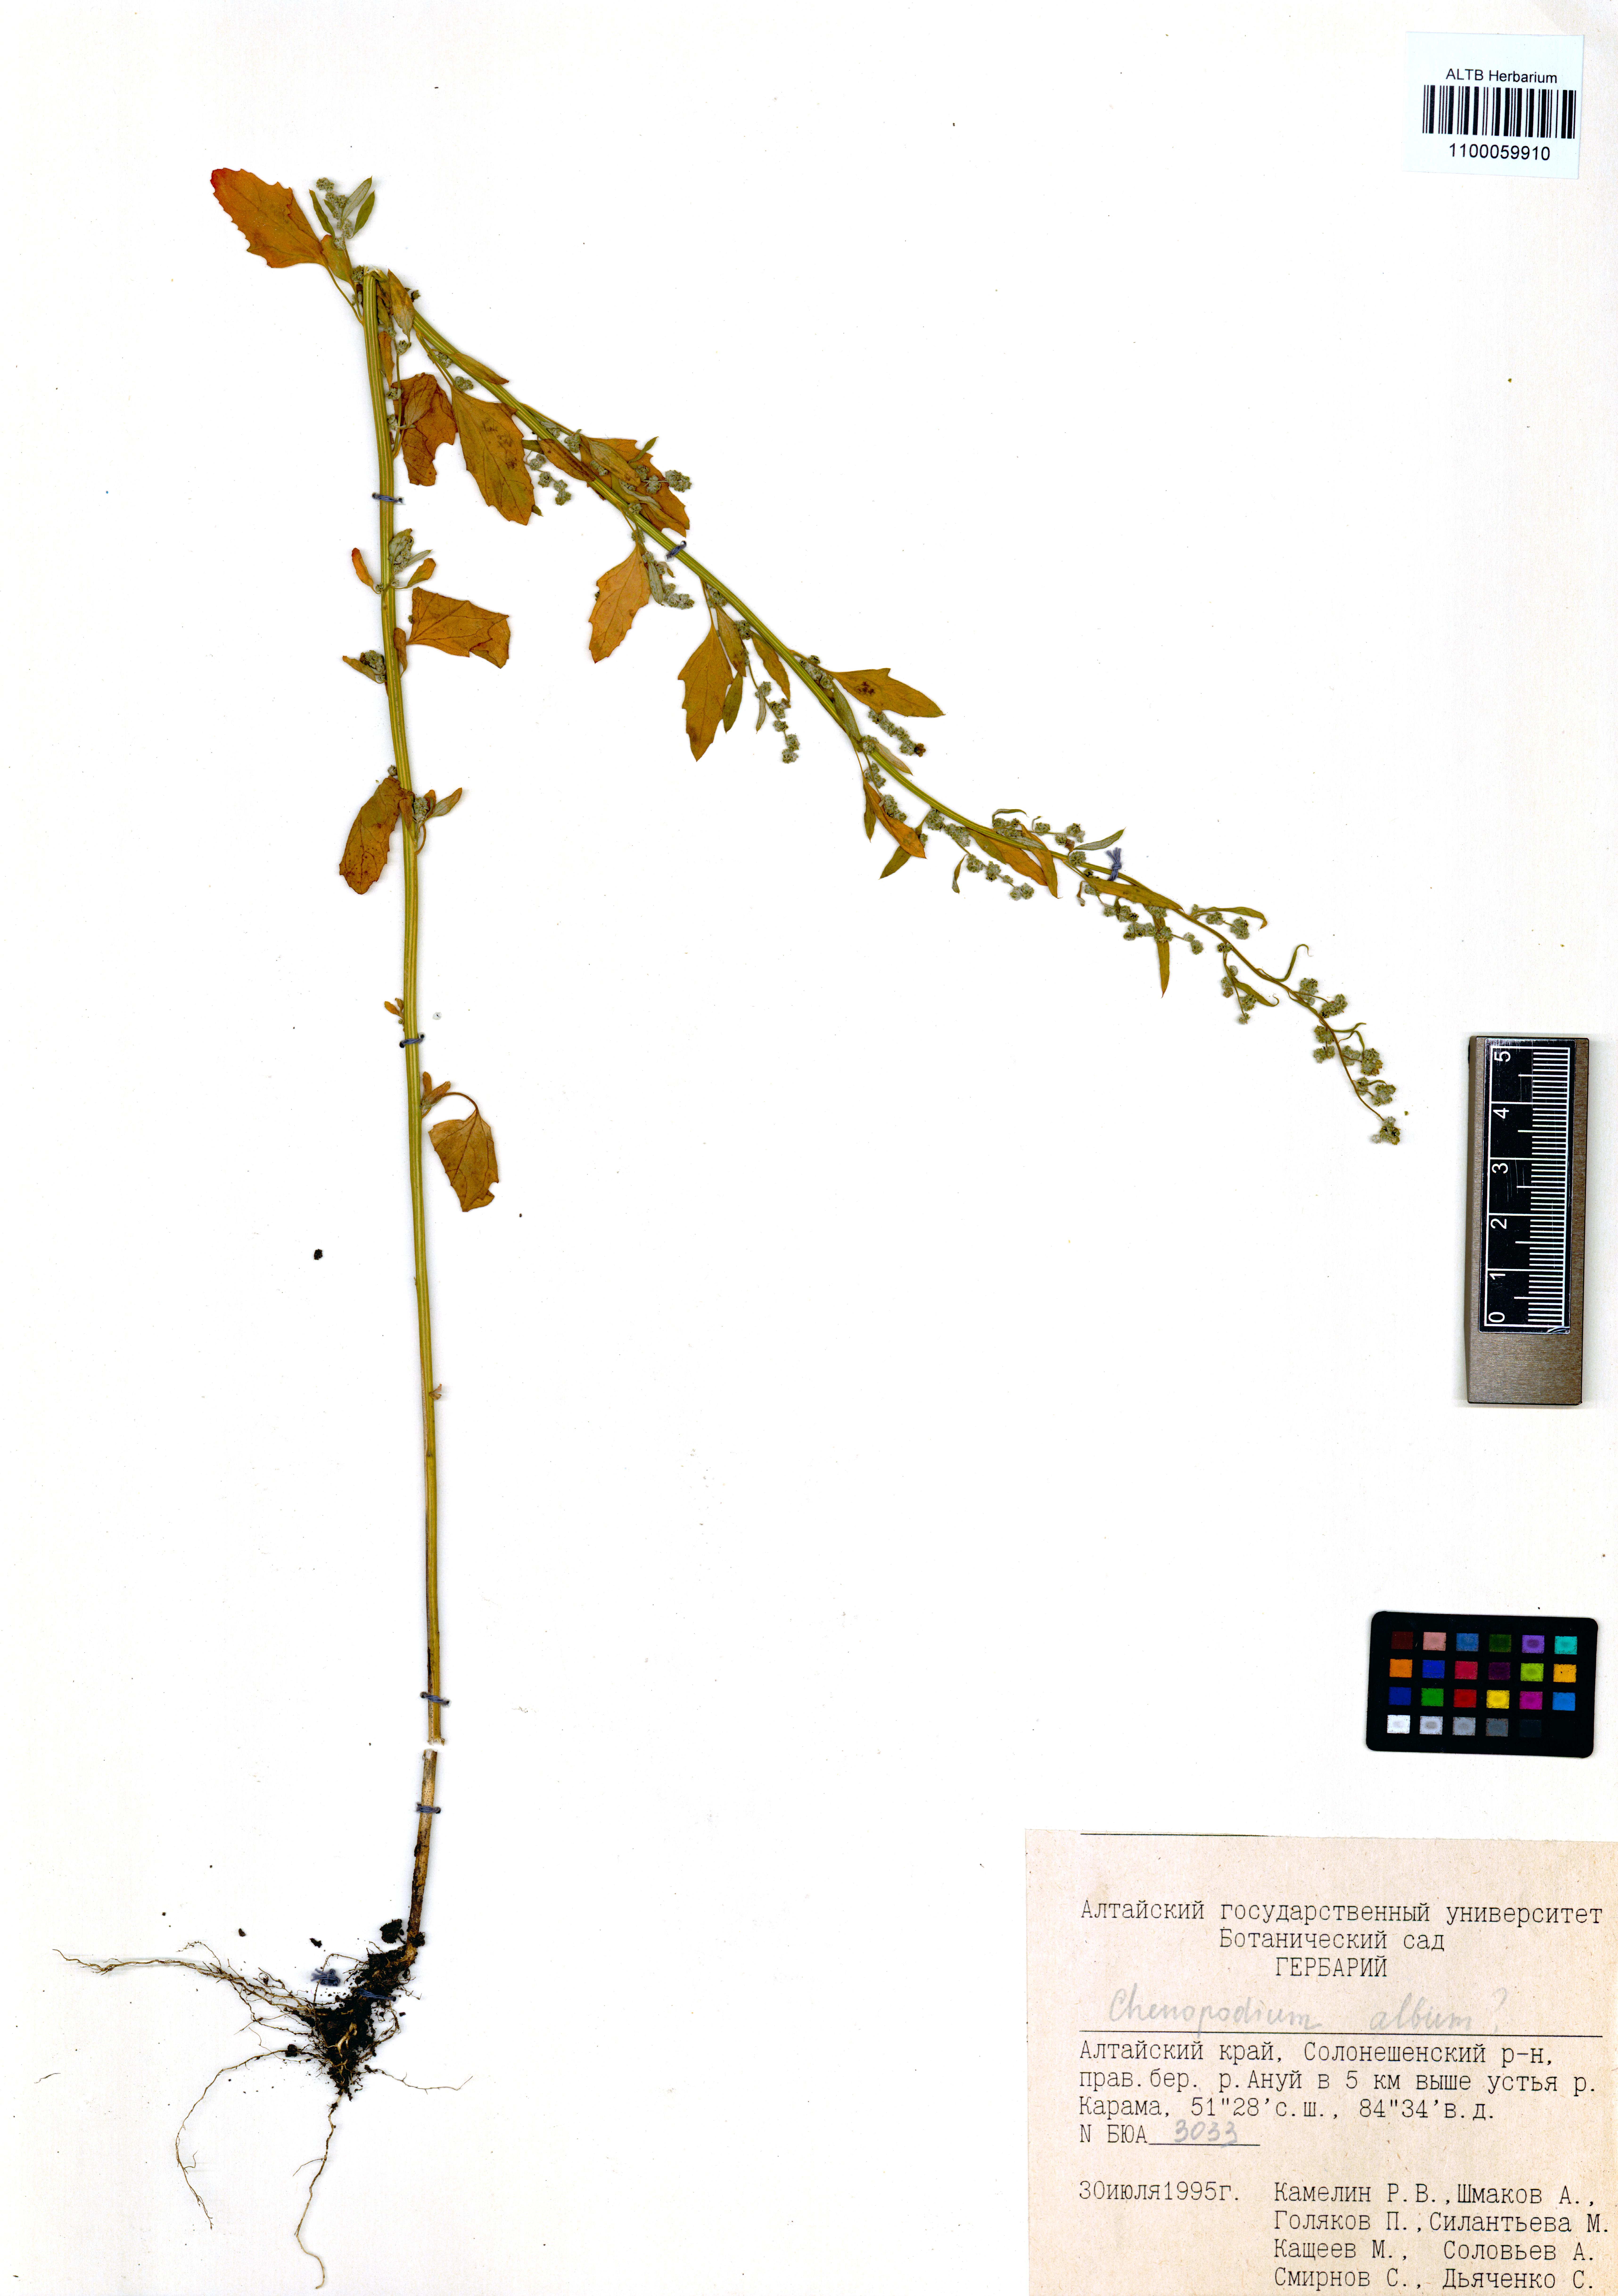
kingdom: Plantae
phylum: Tracheophyta
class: Magnoliopsida
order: Caryophyllales
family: Amaranthaceae
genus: Chenopodium
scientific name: Chenopodium album
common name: Fat-hen
